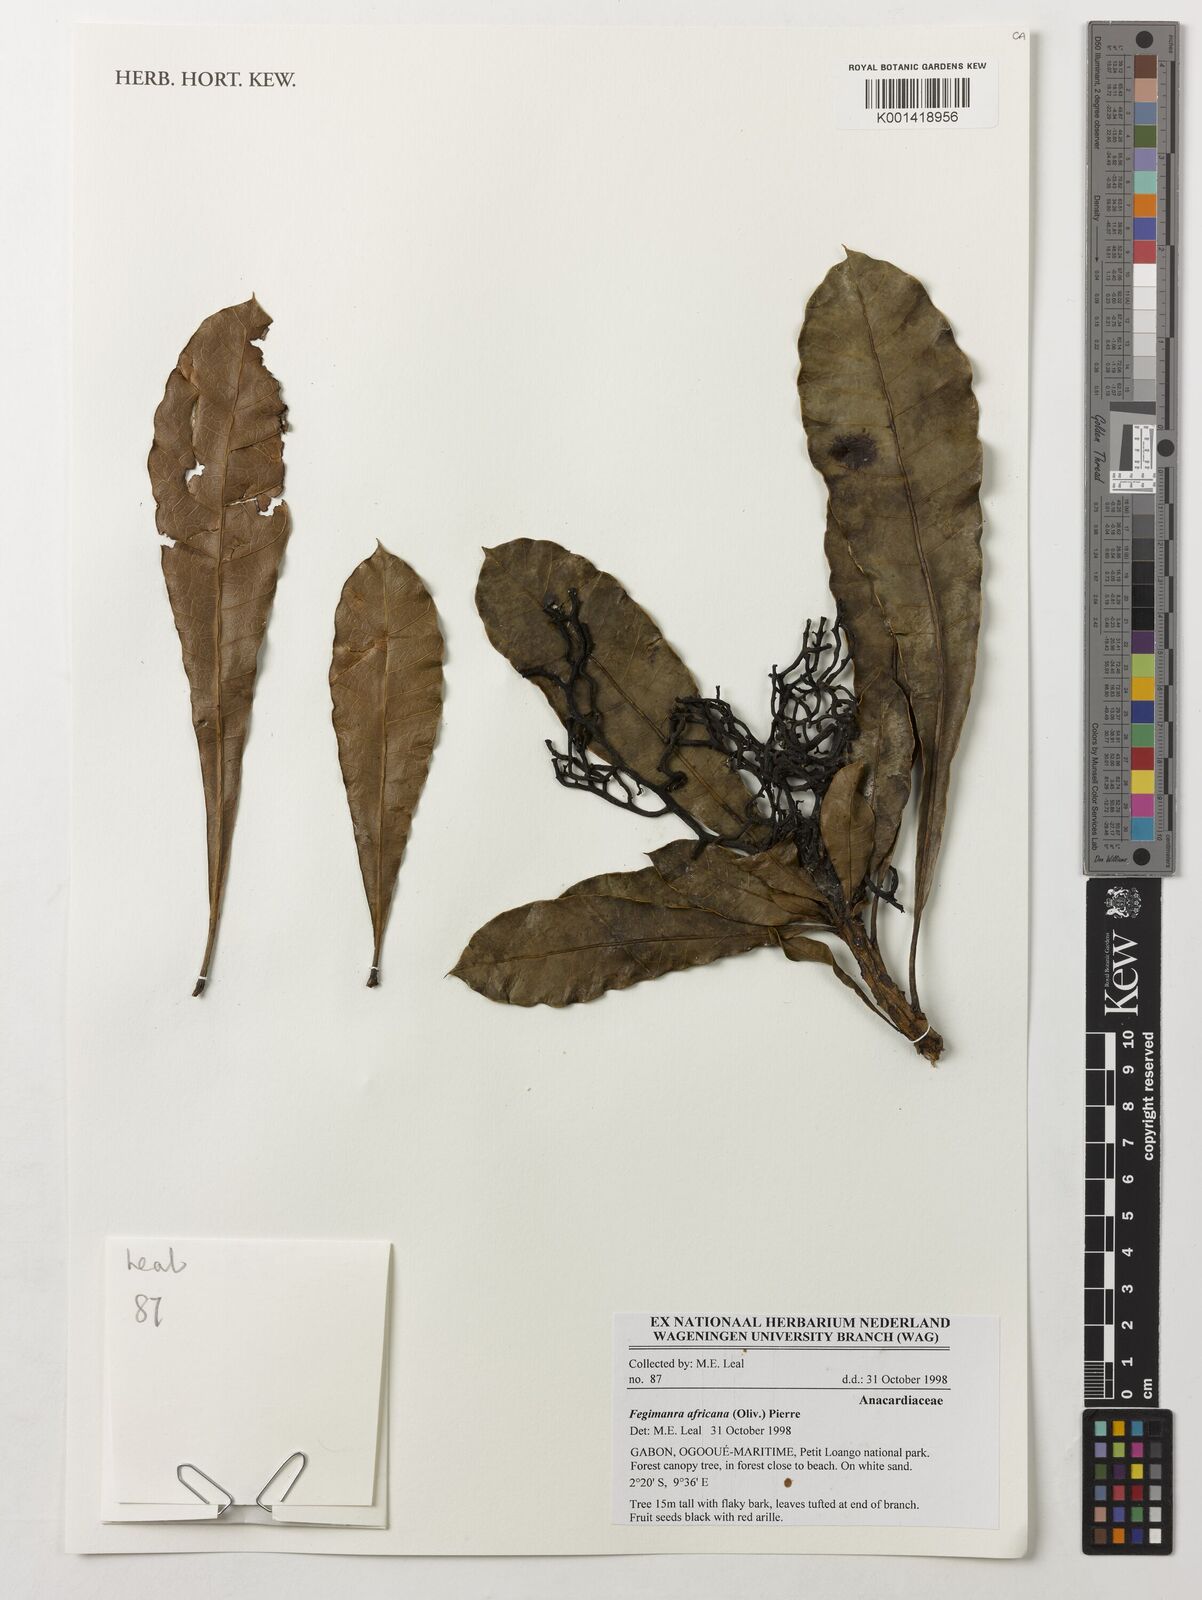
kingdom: Plantae
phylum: Tracheophyta
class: Magnoliopsida
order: Sapindales
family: Anacardiaceae
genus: Fegimanra
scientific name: Fegimanra africana
